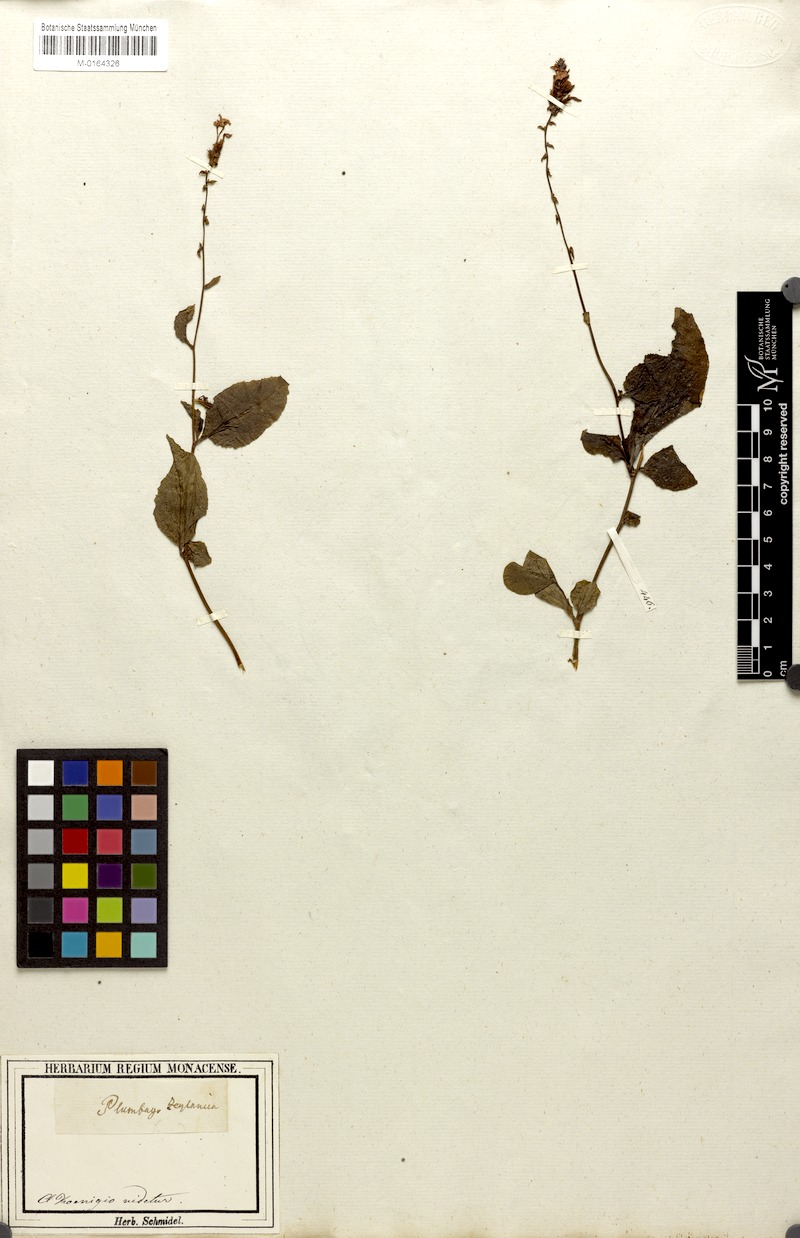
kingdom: Plantae
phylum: Tracheophyta
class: Magnoliopsida
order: Caryophyllales
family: Plumbaginaceae
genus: Plumbago
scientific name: Plumbago zeylanica
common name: Doctorbush
